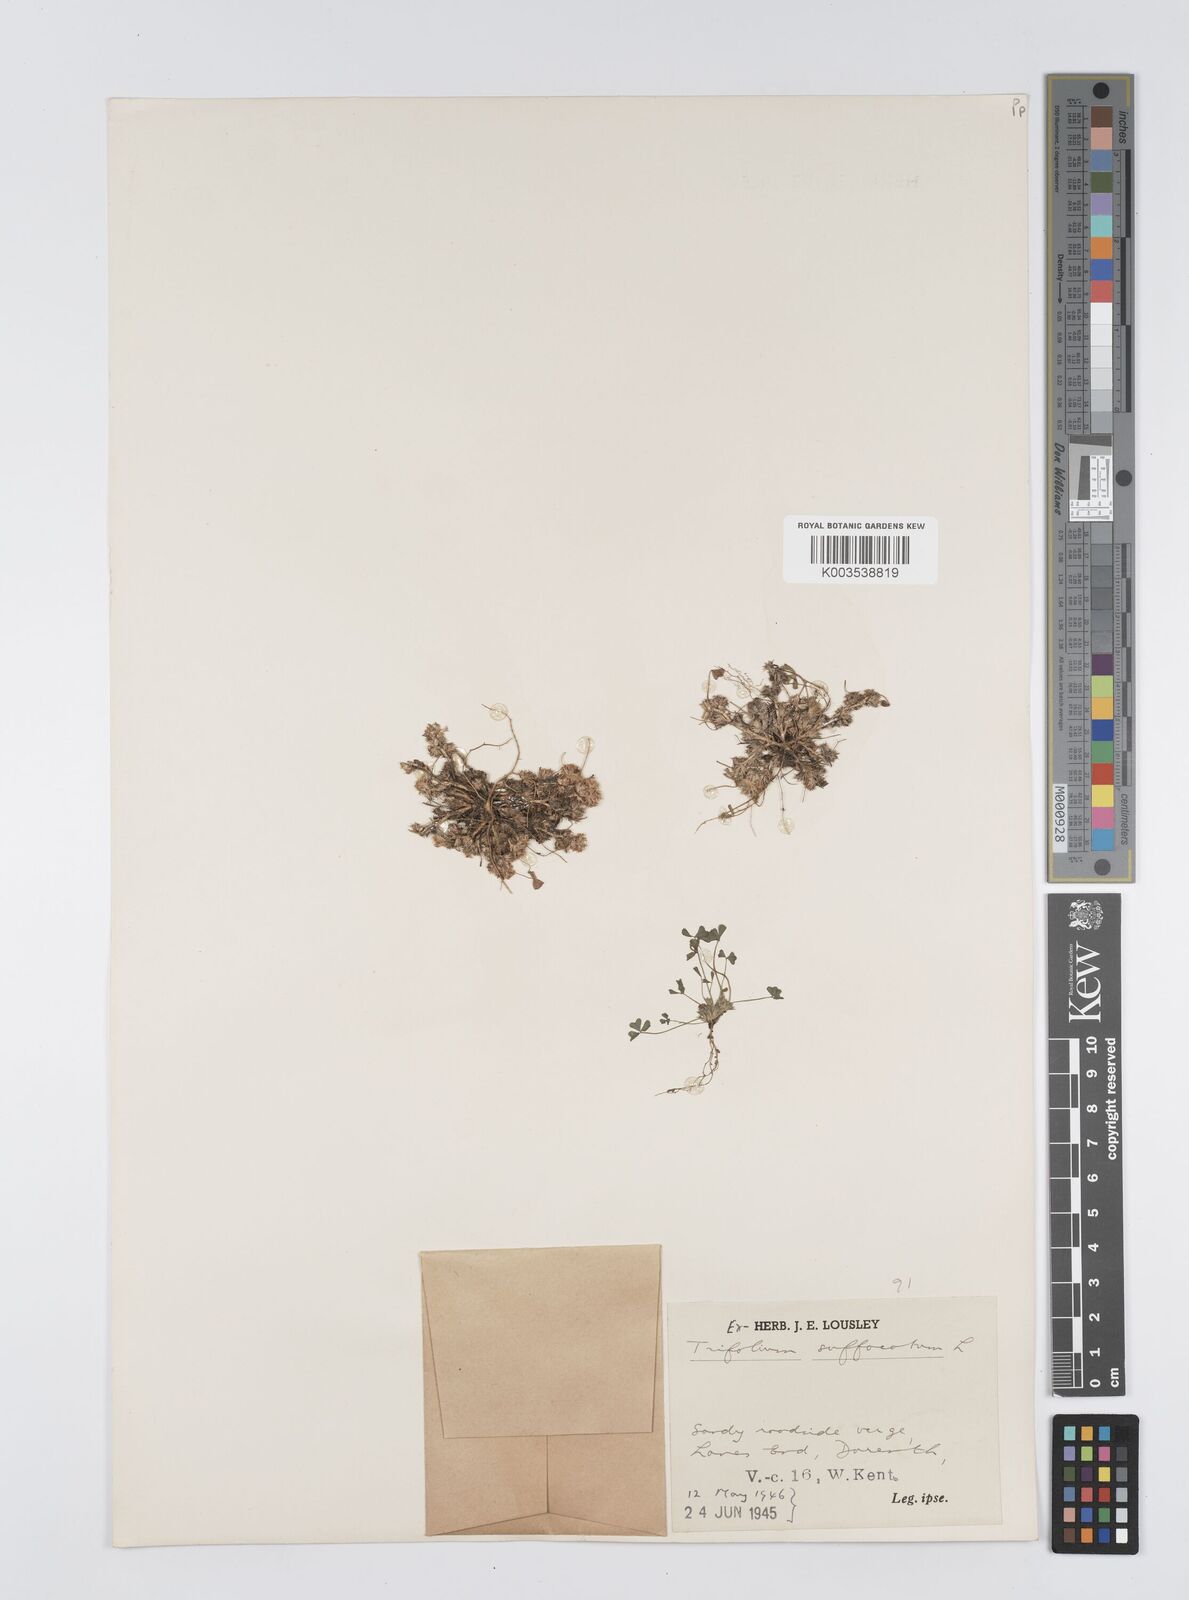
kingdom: Plantae
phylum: Tracheophyta
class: Magnoliopsida
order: Fabales
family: Fabaceae
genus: Trifolium
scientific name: Trifolium suffocatum
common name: Suffocated clover
